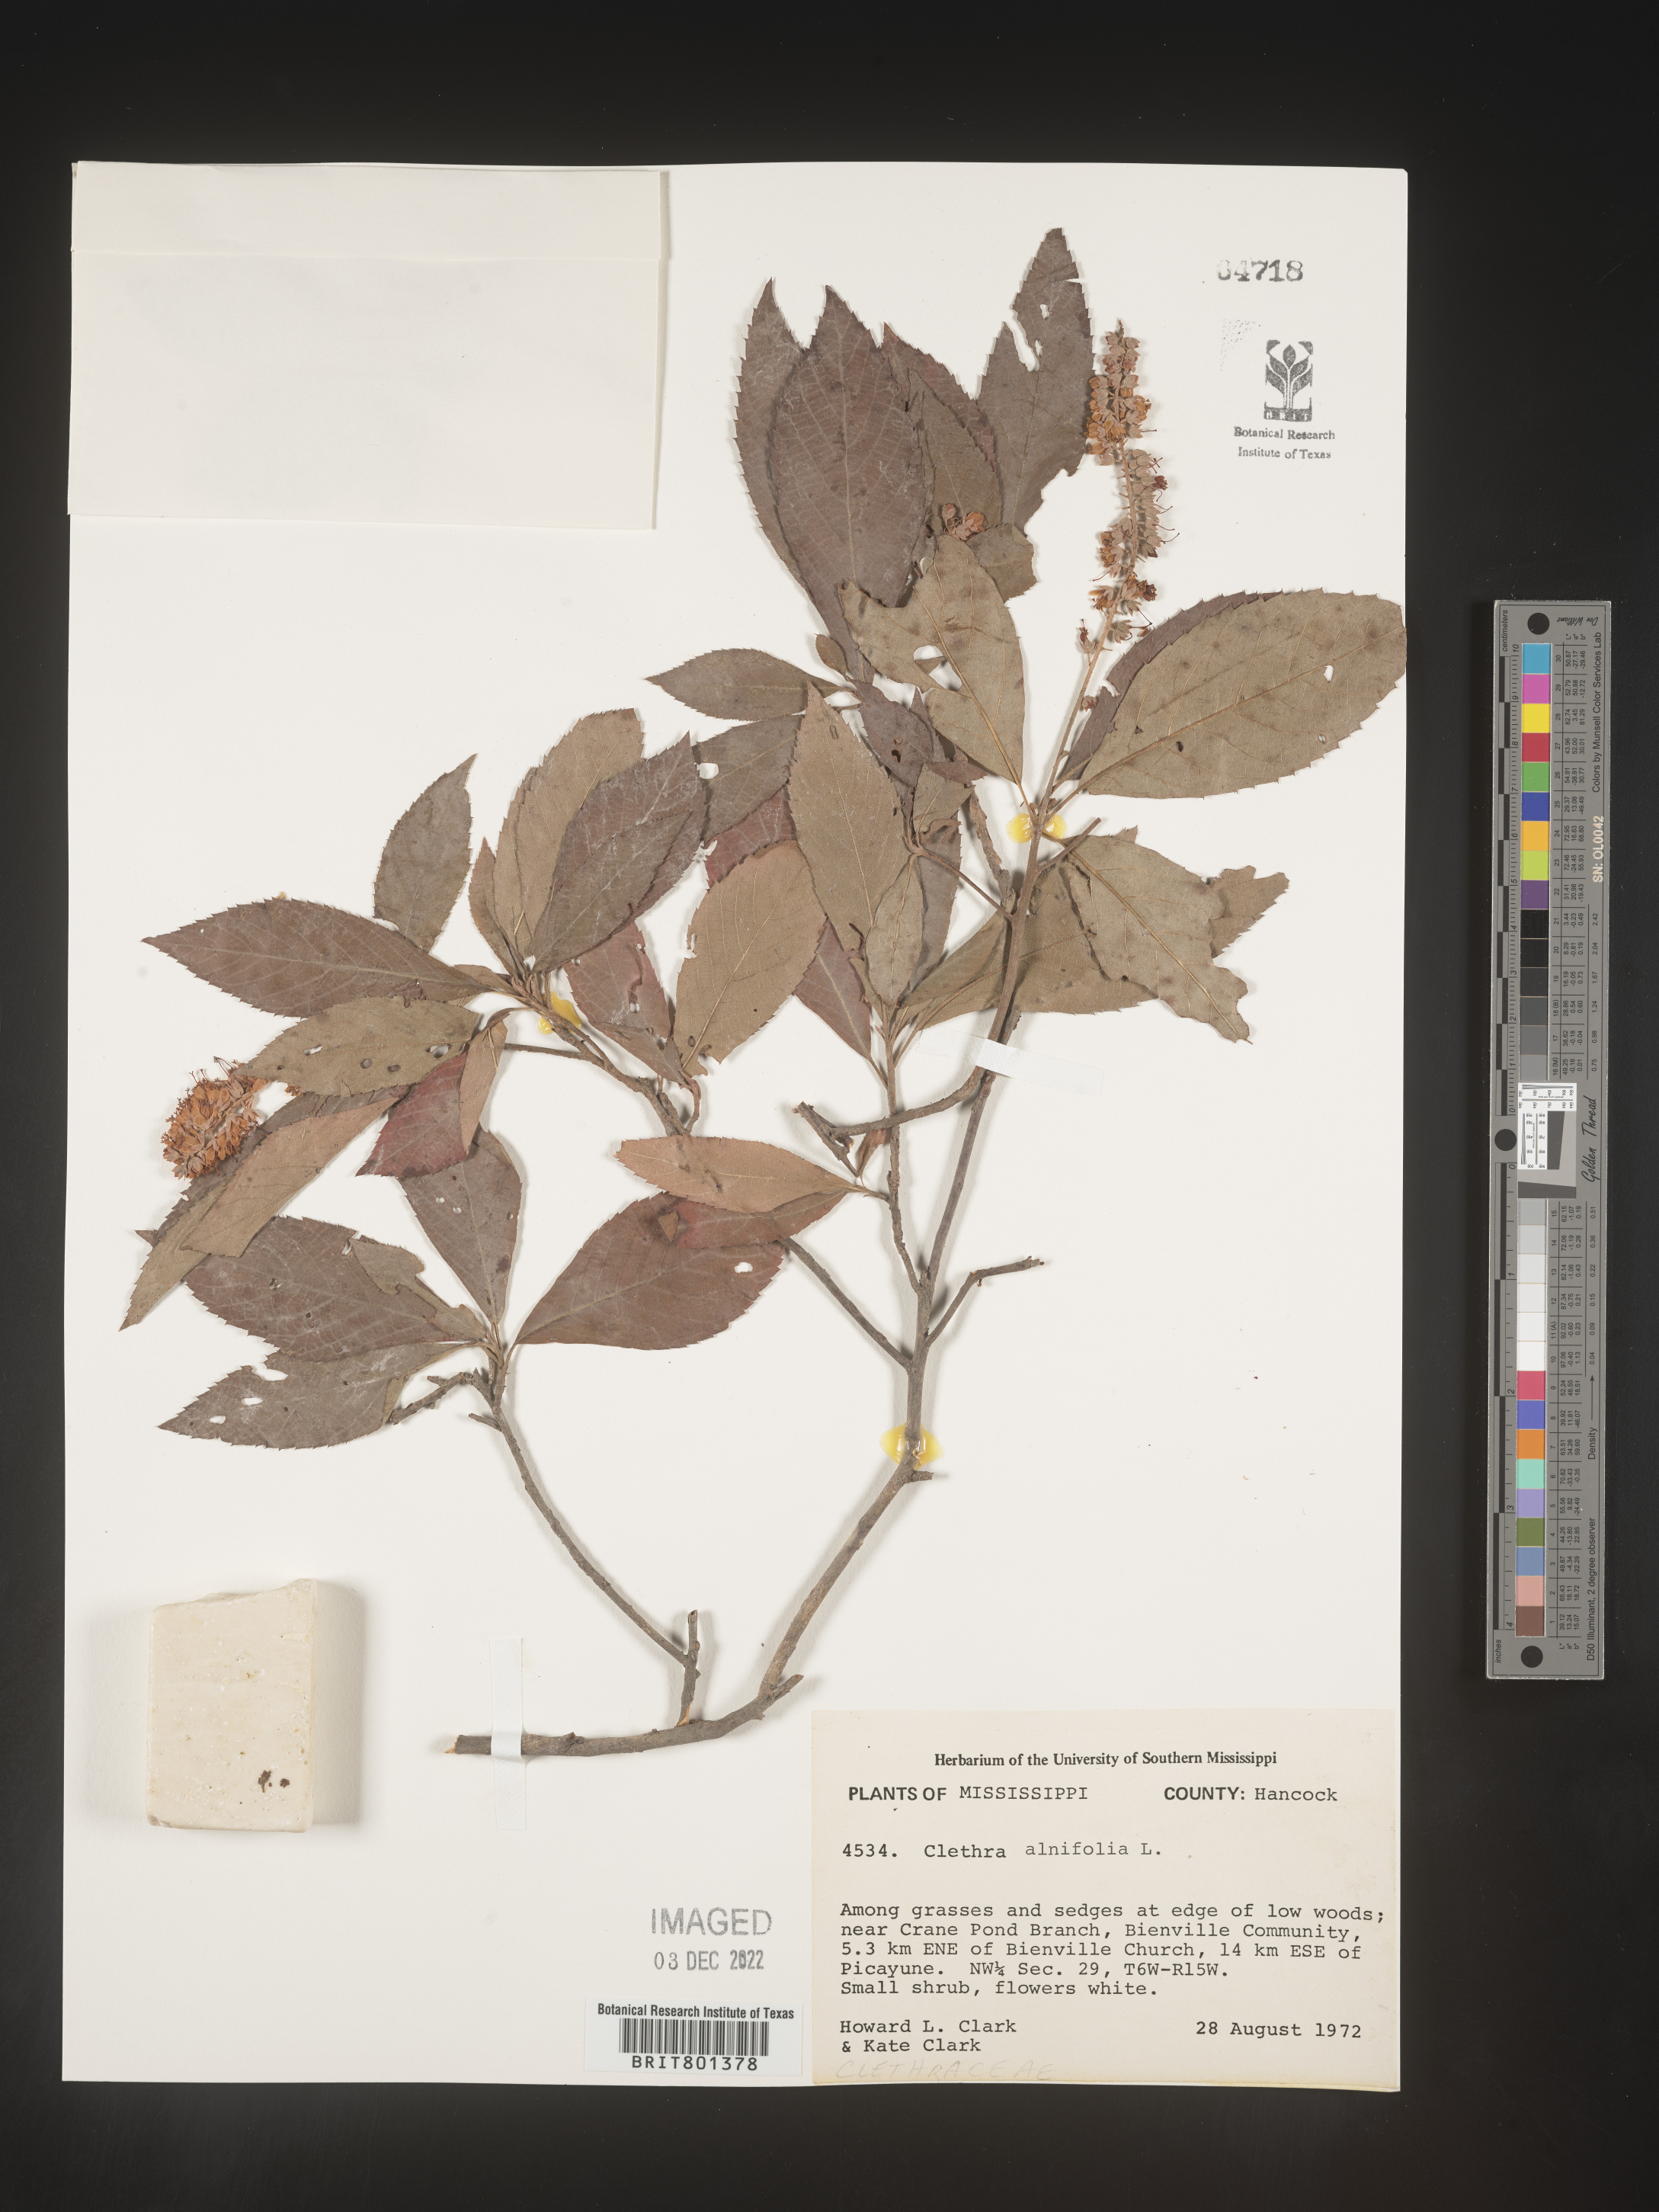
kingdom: Plantae
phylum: Tracheophyta
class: Magnoliopsida
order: Ericales
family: Clethraceae
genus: Clethra
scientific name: Clethra alnifolia
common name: Sweet pepperbush
